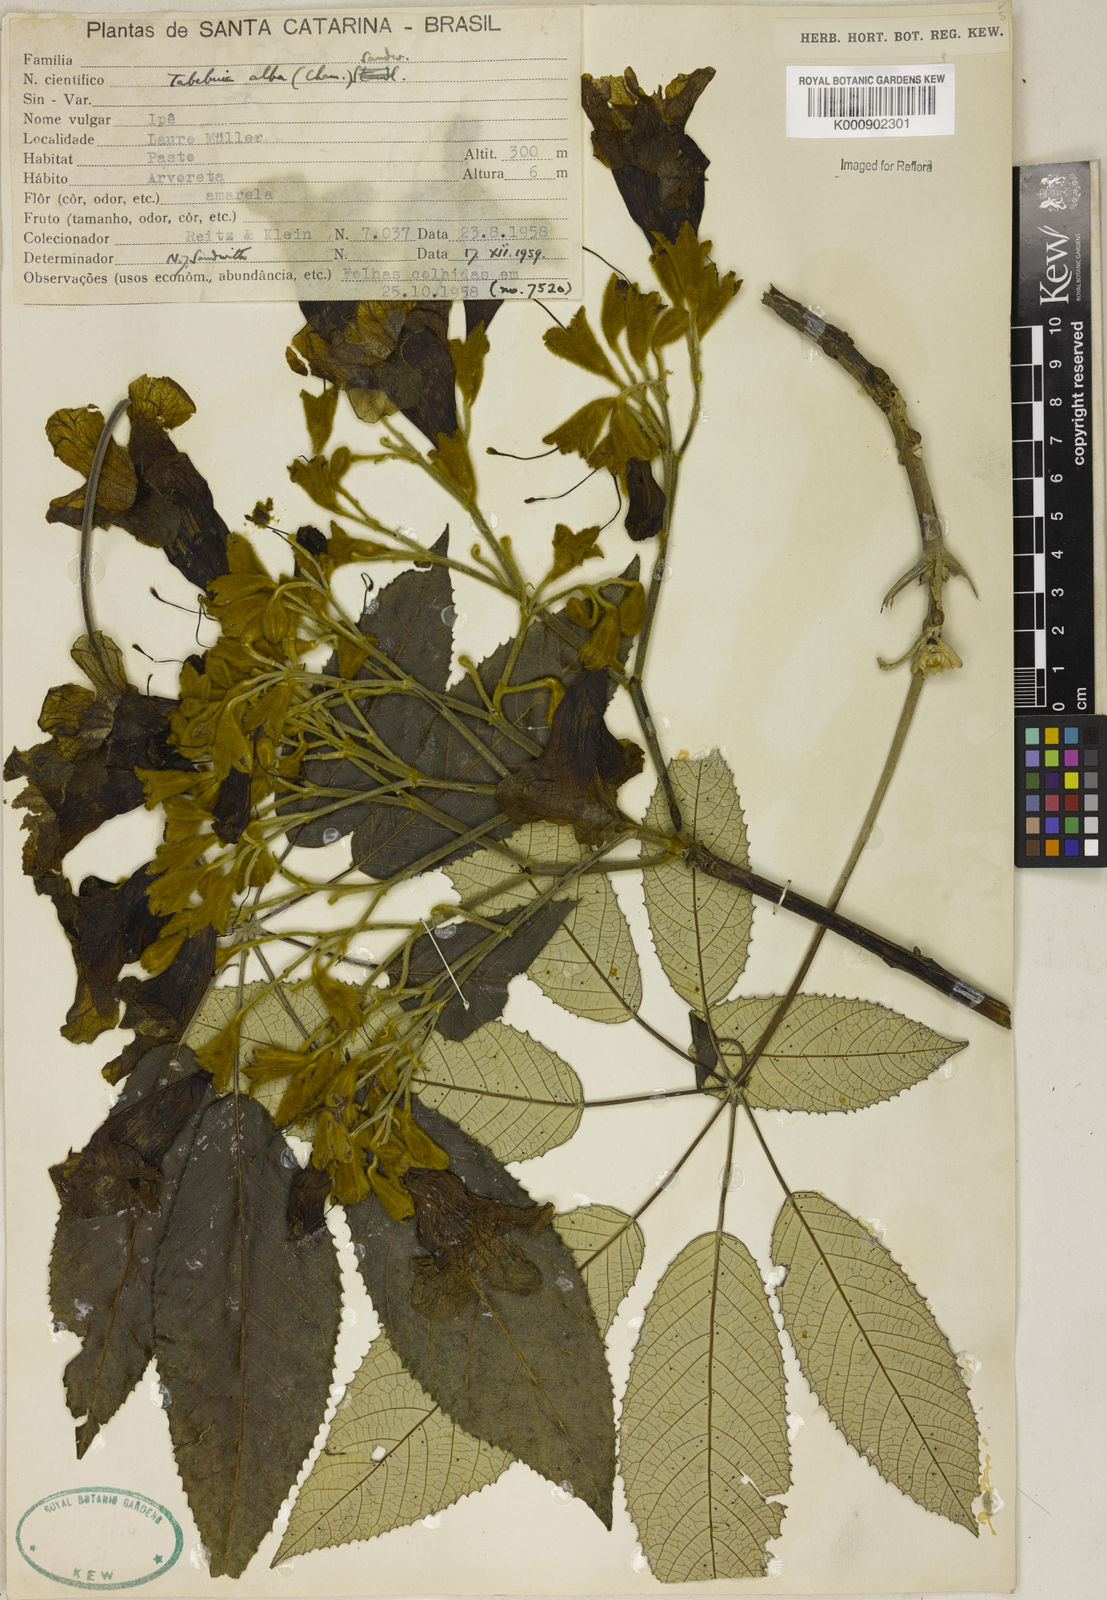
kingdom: Plantae
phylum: Tracheophyta
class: Magnoliopsida
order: Lamiales
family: Bignoniaceae
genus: Handroanthus
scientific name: Handroanthus albus
